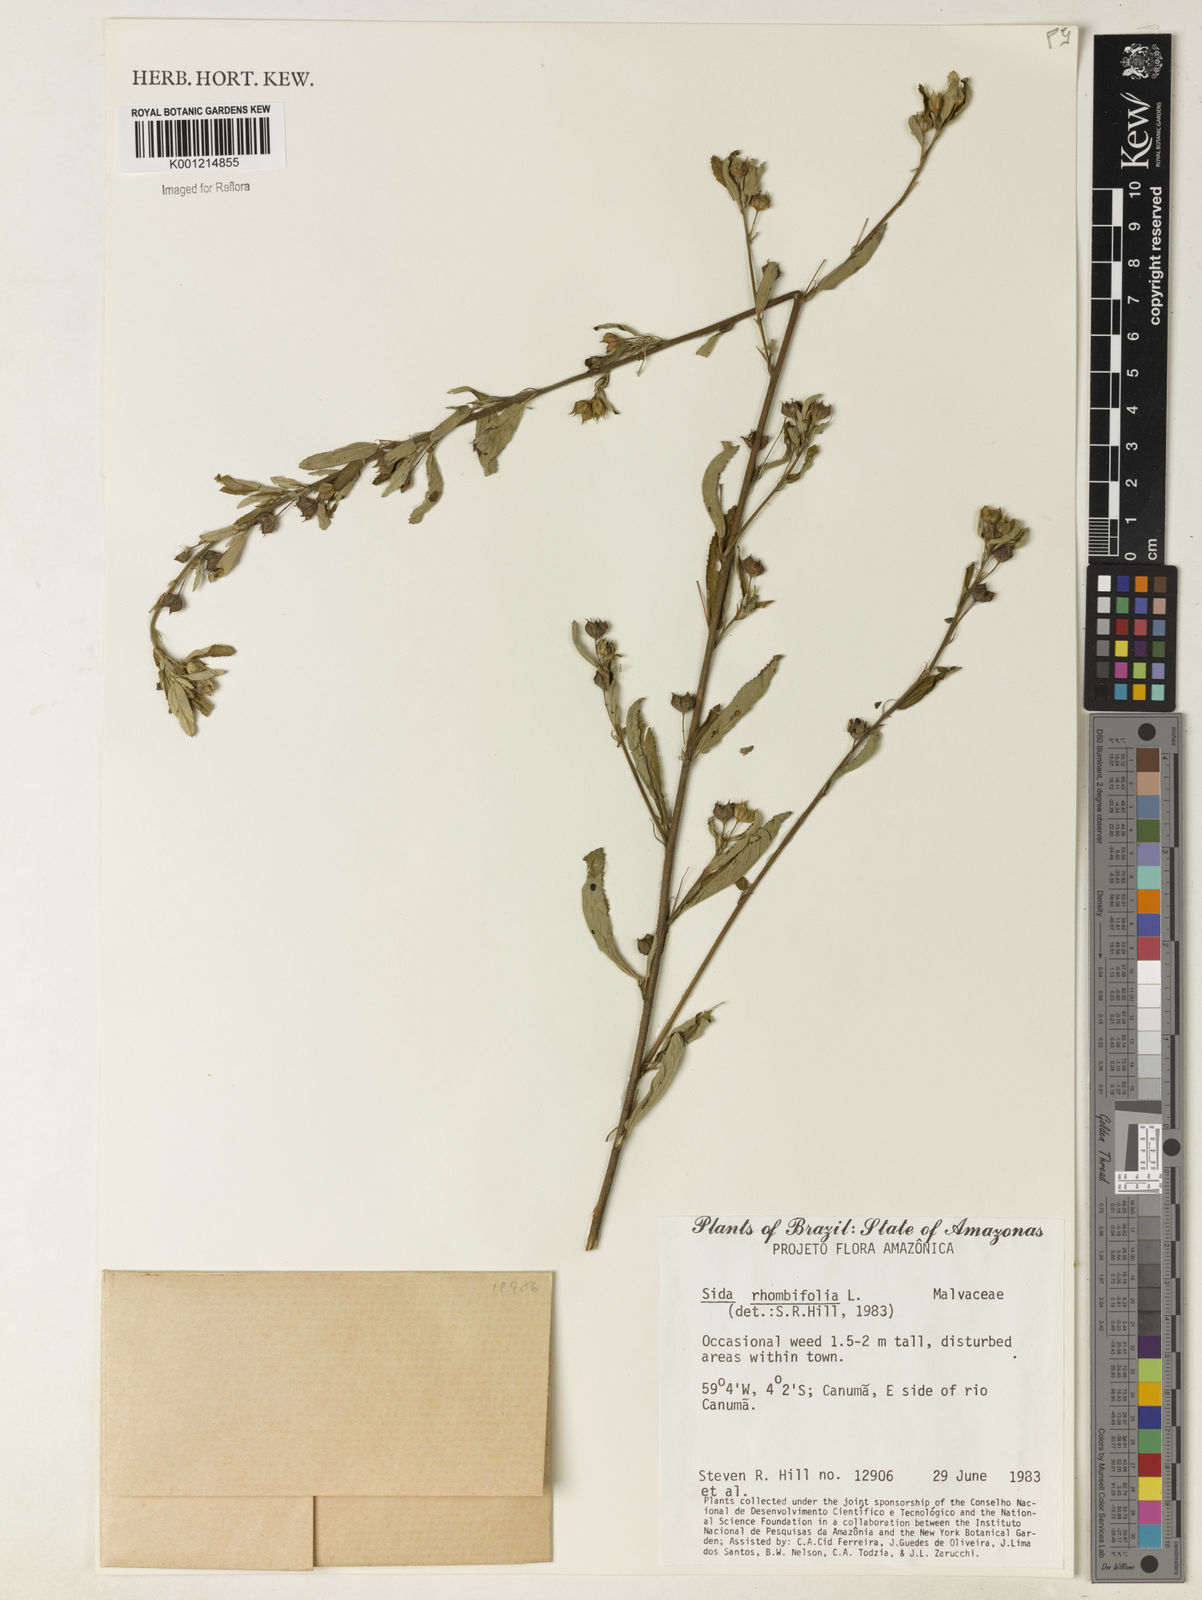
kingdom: Plantae
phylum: Tracheophyta
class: Magnoliopsida
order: Malvales
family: Malvaceae
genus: Sida
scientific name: Sida rhombifolia
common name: Queensland-hemp
